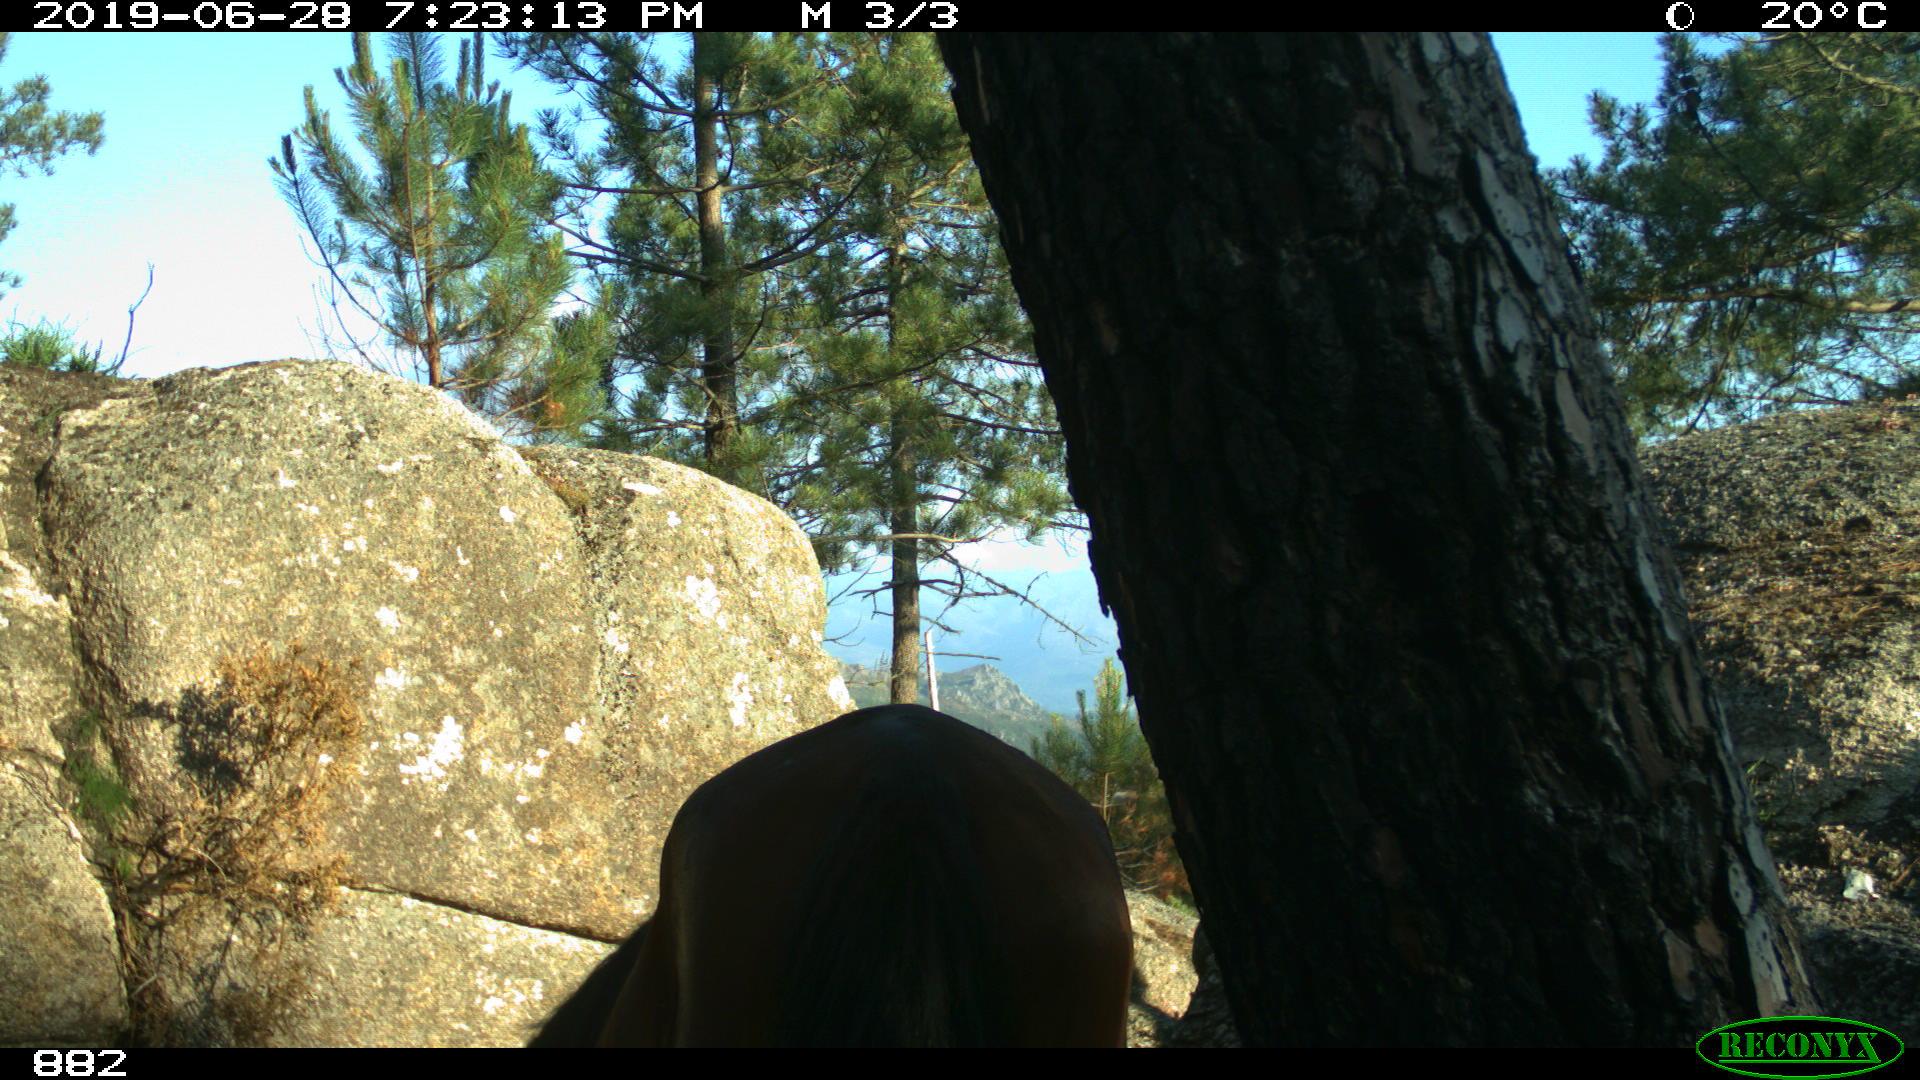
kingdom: Animalia
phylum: Chordata
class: Mammalia
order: Perissodactyla
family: Equidae
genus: Equus
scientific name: Equus caballus
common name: Horse
